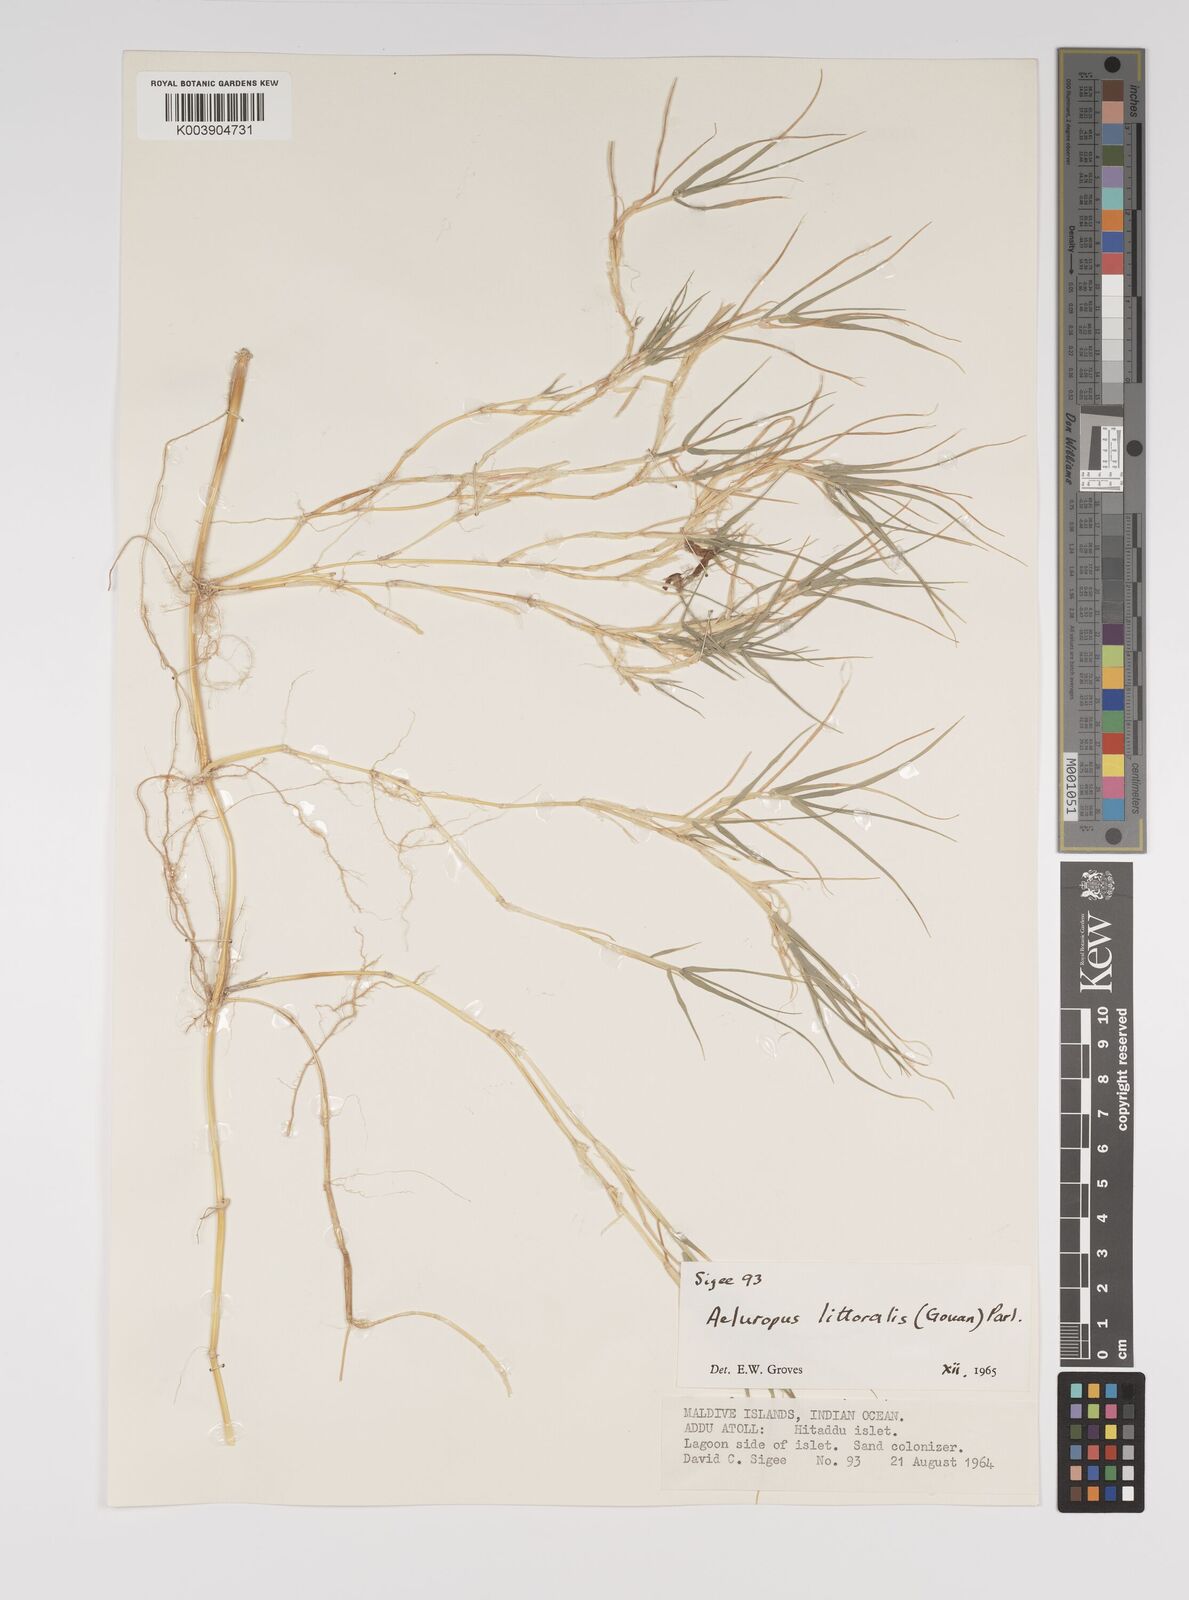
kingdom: Plantae
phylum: Tracheophyta
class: Liliopsida
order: Poales
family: Poaceae
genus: Aeluropus
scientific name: Aeluropus littoralis
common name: Indian walnut
